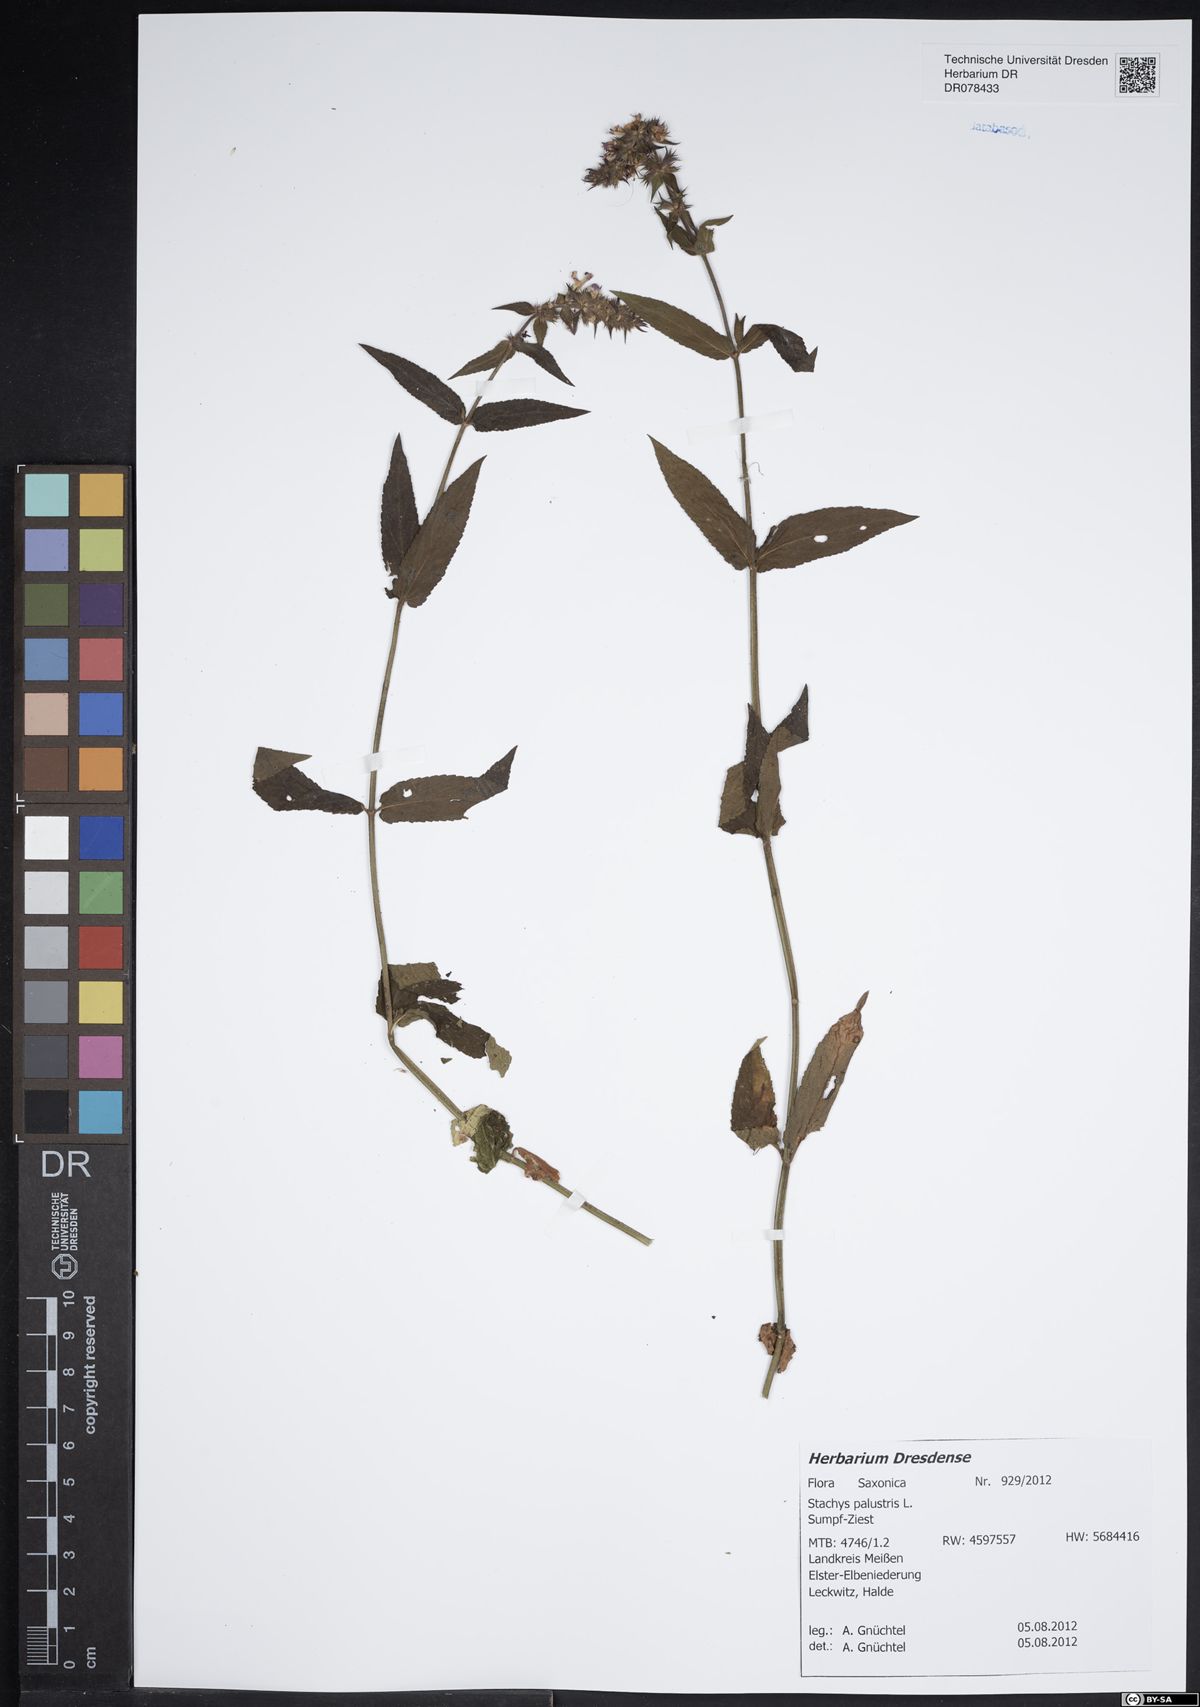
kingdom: Plantae
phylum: Tracheophyta
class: Magnoliopsida
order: Lamiales
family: Lamiaceae
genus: Stachys
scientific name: Stachys palustris
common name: Marsh woundwort
